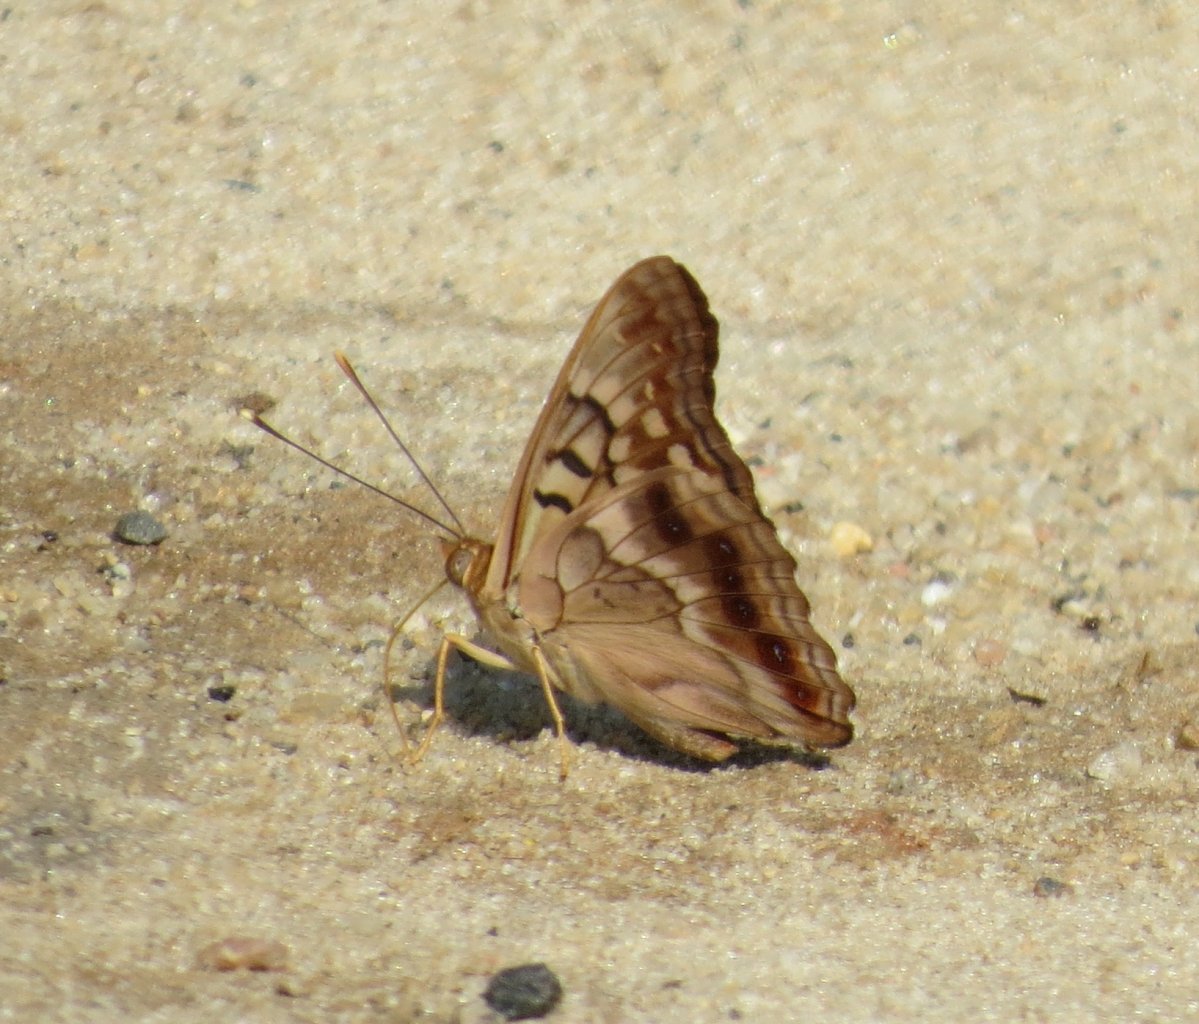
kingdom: Animalia
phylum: Arthropoda
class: Insecta
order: Lepidoptera
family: Nymphalidae
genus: Asterocampa
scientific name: Asterocampa clyton
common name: Tawny Emperor
